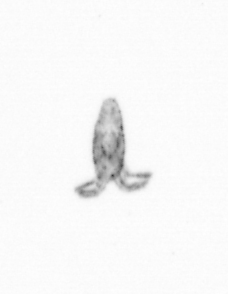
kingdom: Animalia
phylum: Arthropoda
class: Copepoda
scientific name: Copepoda
